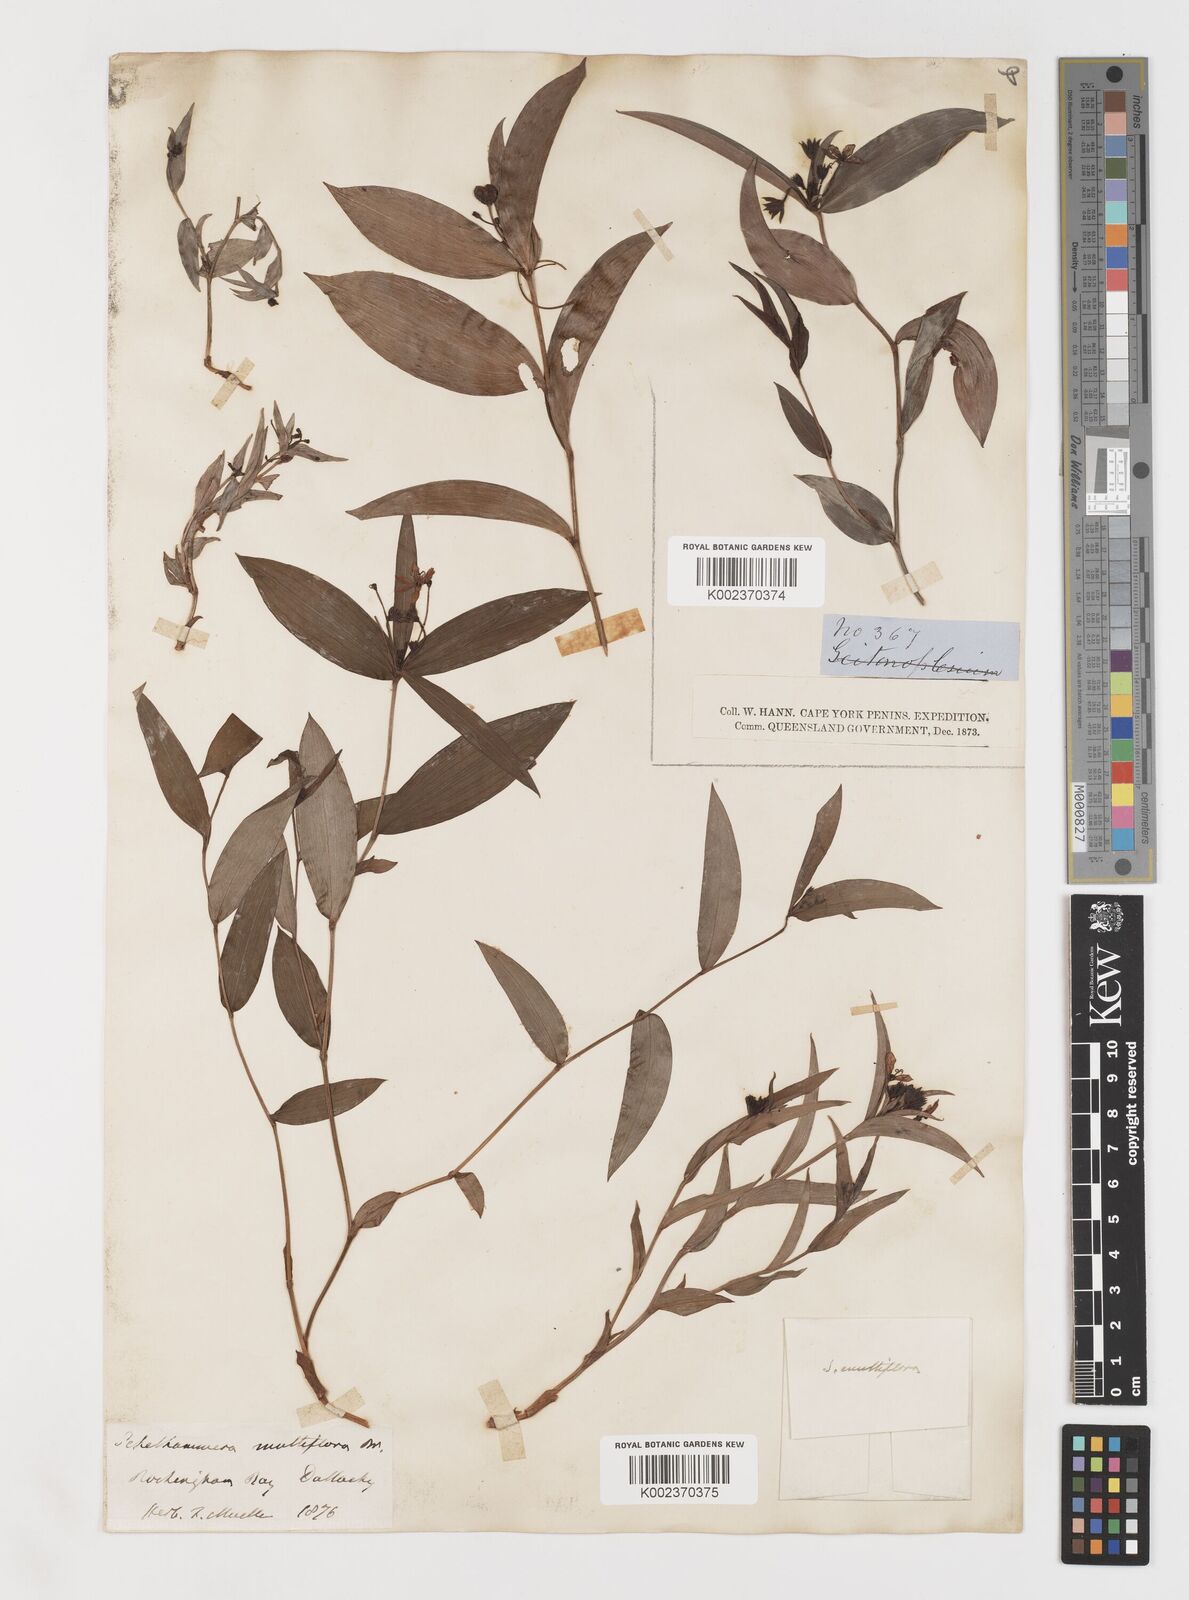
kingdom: Plantae
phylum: Tracheophyta
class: Liliopsida
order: Liliales
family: Colchicaceae
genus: Schelhammera
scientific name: Schelhammera multiflora
